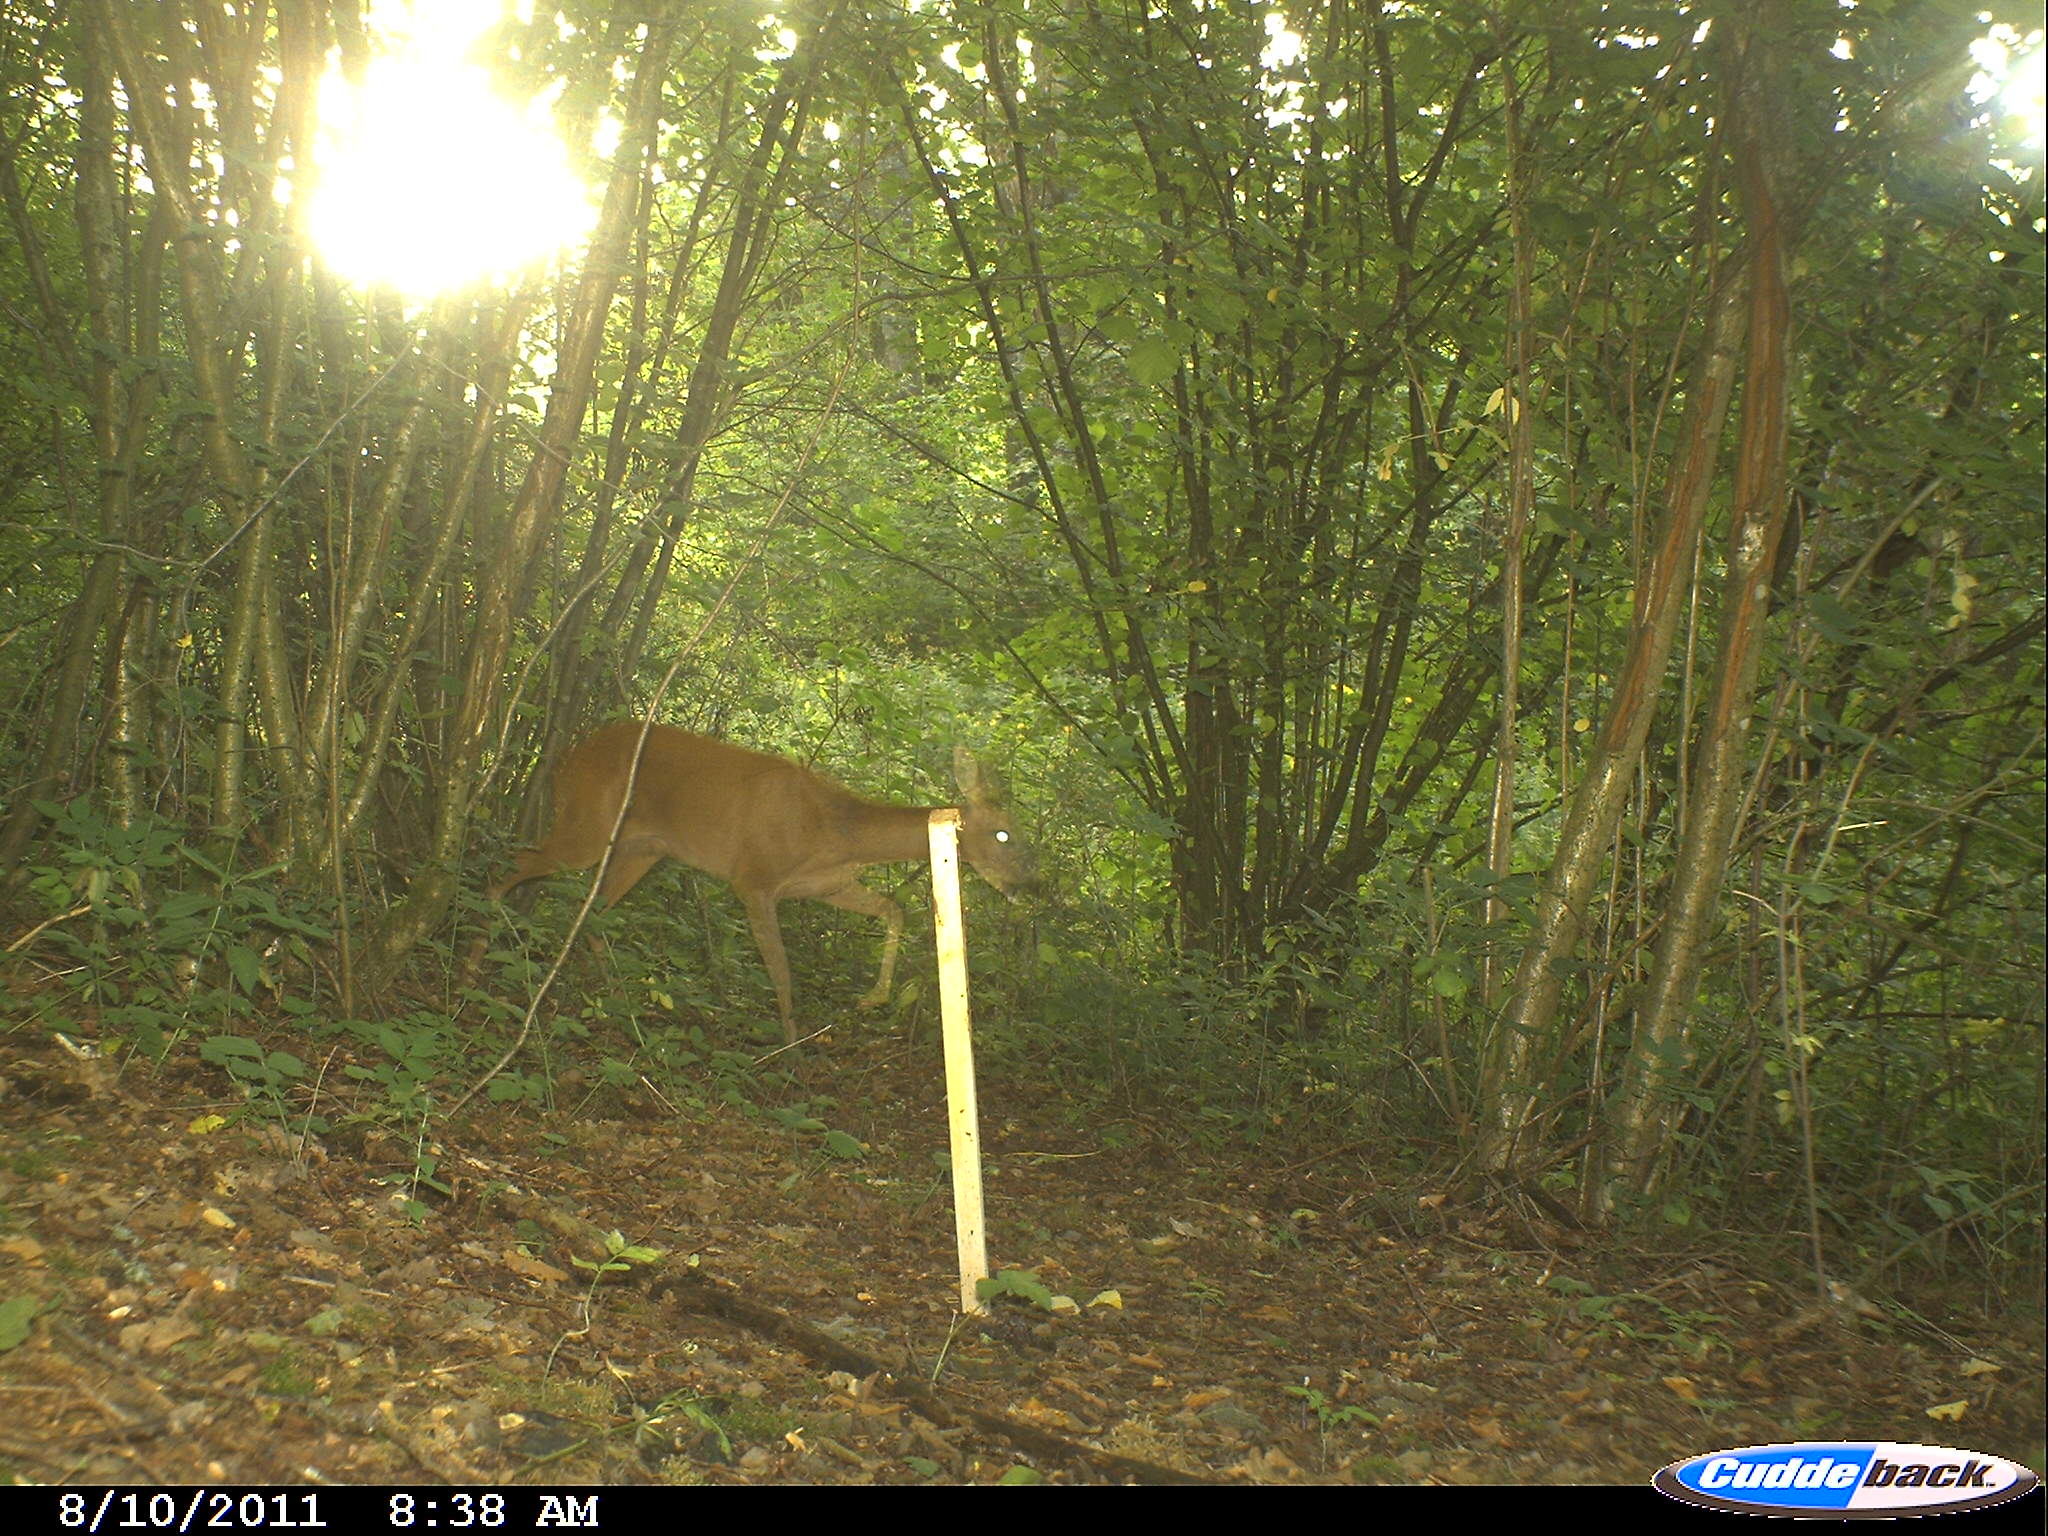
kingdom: Animalia
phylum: Chordata
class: Mammalia
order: Artiodactyla
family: Cervidae
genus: Capreolus
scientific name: Capreolus capreolus
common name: Western roe deer
